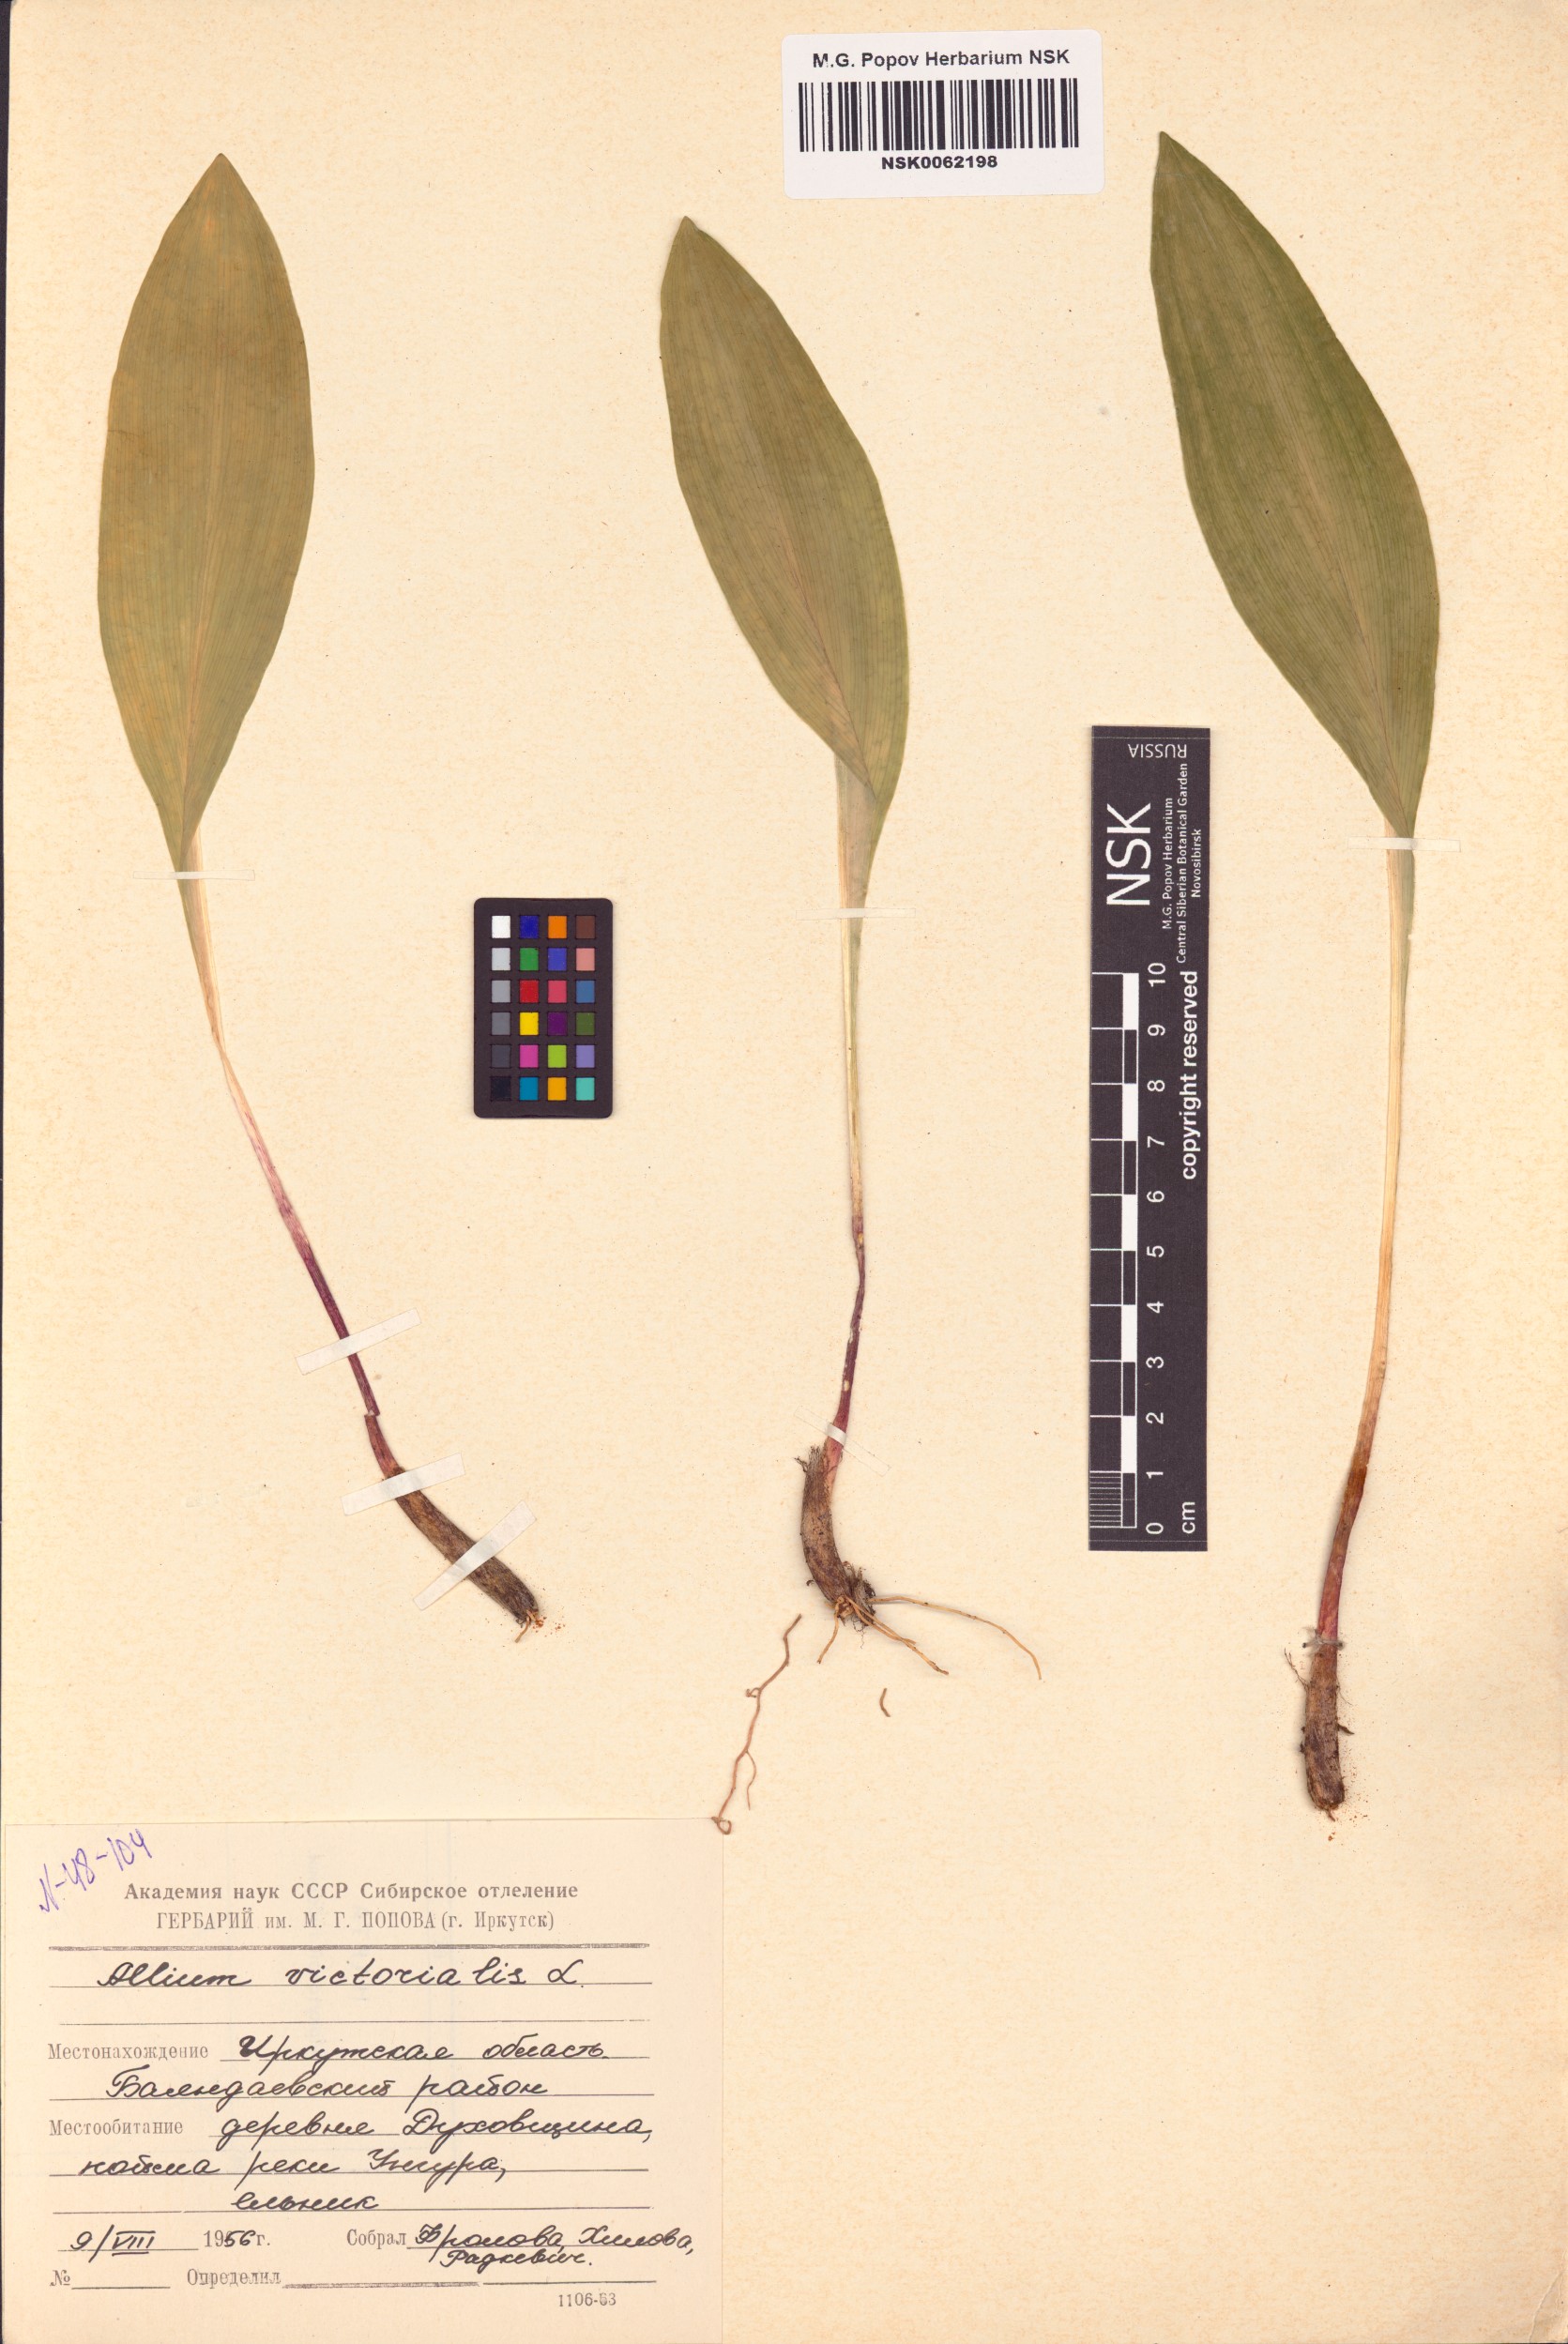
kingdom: Plantae
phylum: Tracheophyta
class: Liliopsida
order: Asparagales
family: Amaryllidaceae
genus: Allium
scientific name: Allium victorialis
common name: Alpine leek
